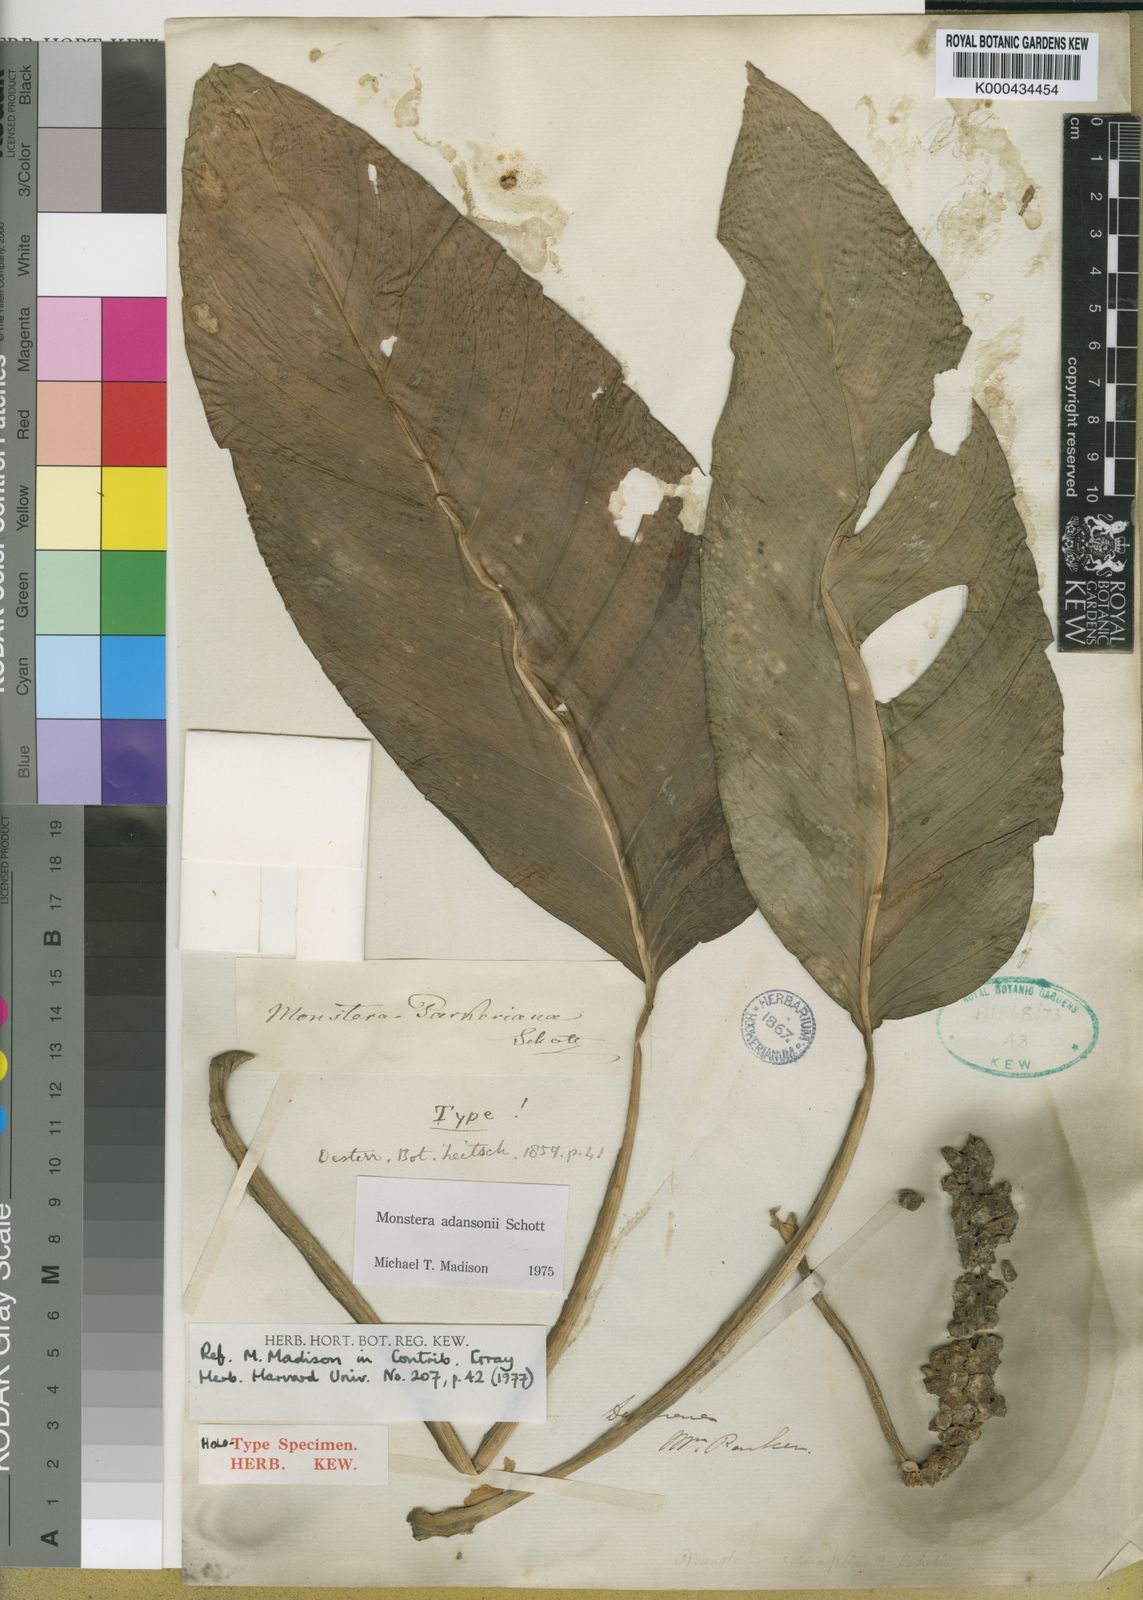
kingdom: Plantae
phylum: Tracheophyta
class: Liliopsida
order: Alismatales
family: Araceae
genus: Monstera
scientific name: Monstera adansonii
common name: Tarovine
